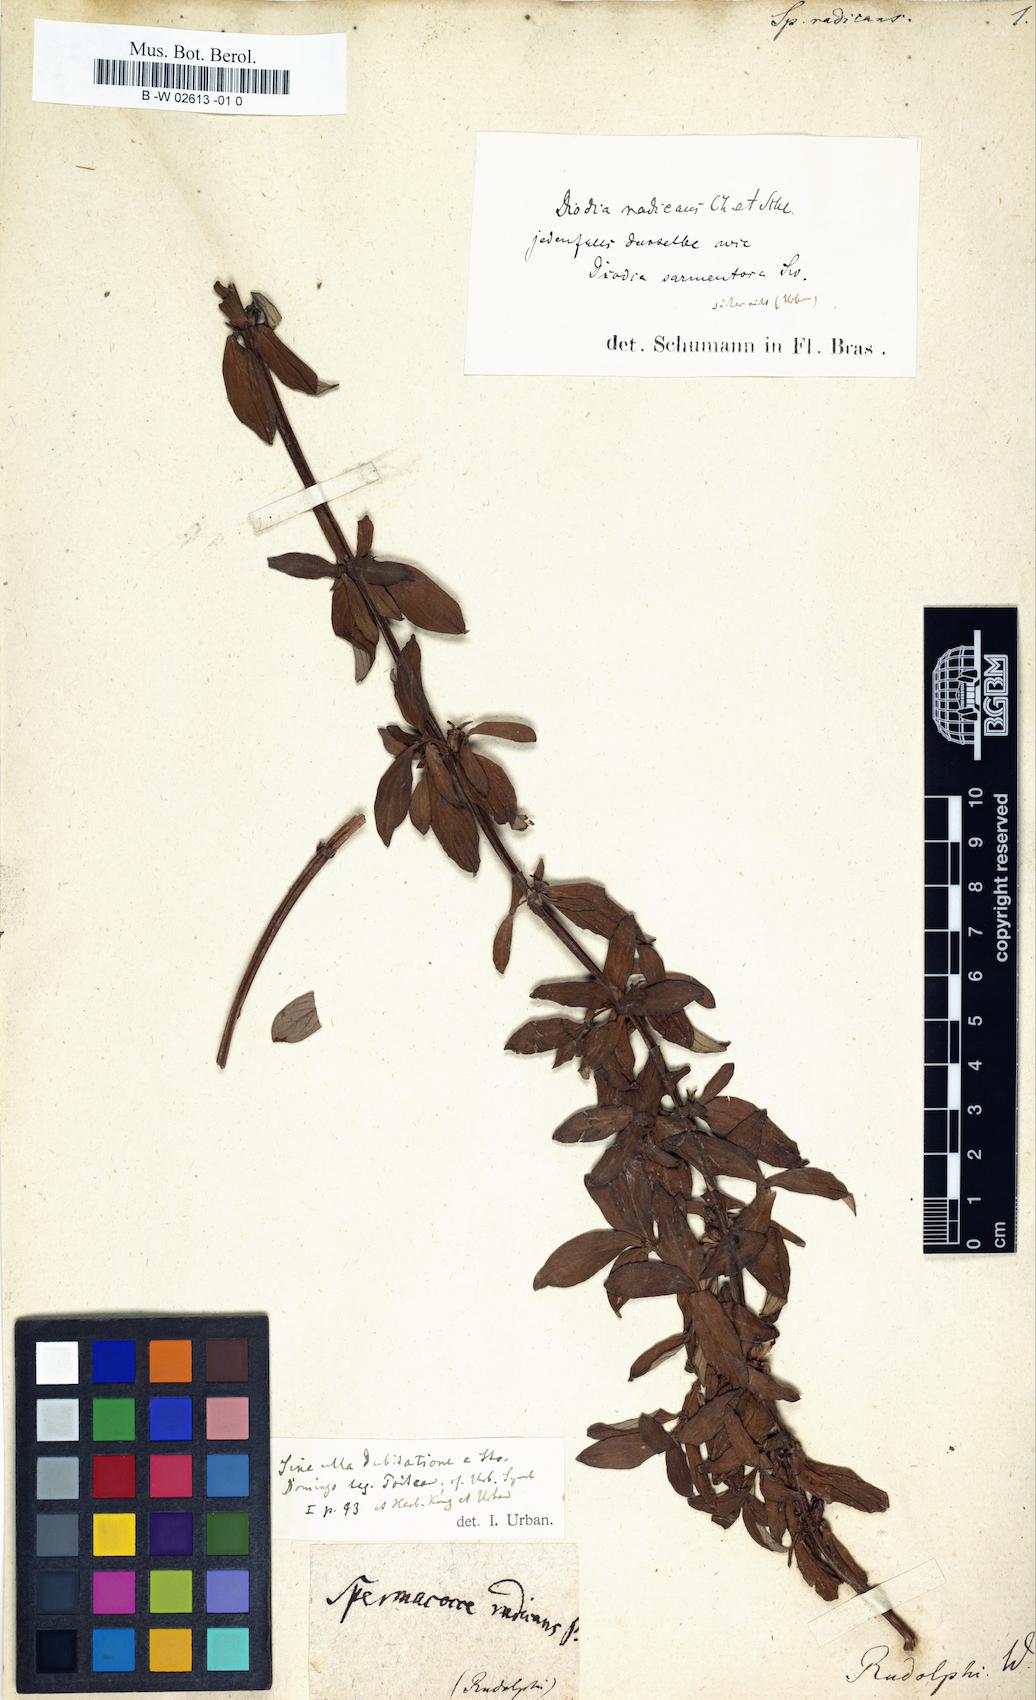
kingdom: Plantae
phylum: Tracheophyta
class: Magnoliopsida
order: Gentianales
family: Rubiaceae
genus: Hexasepalum
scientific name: Hexasepalum serrulatum
